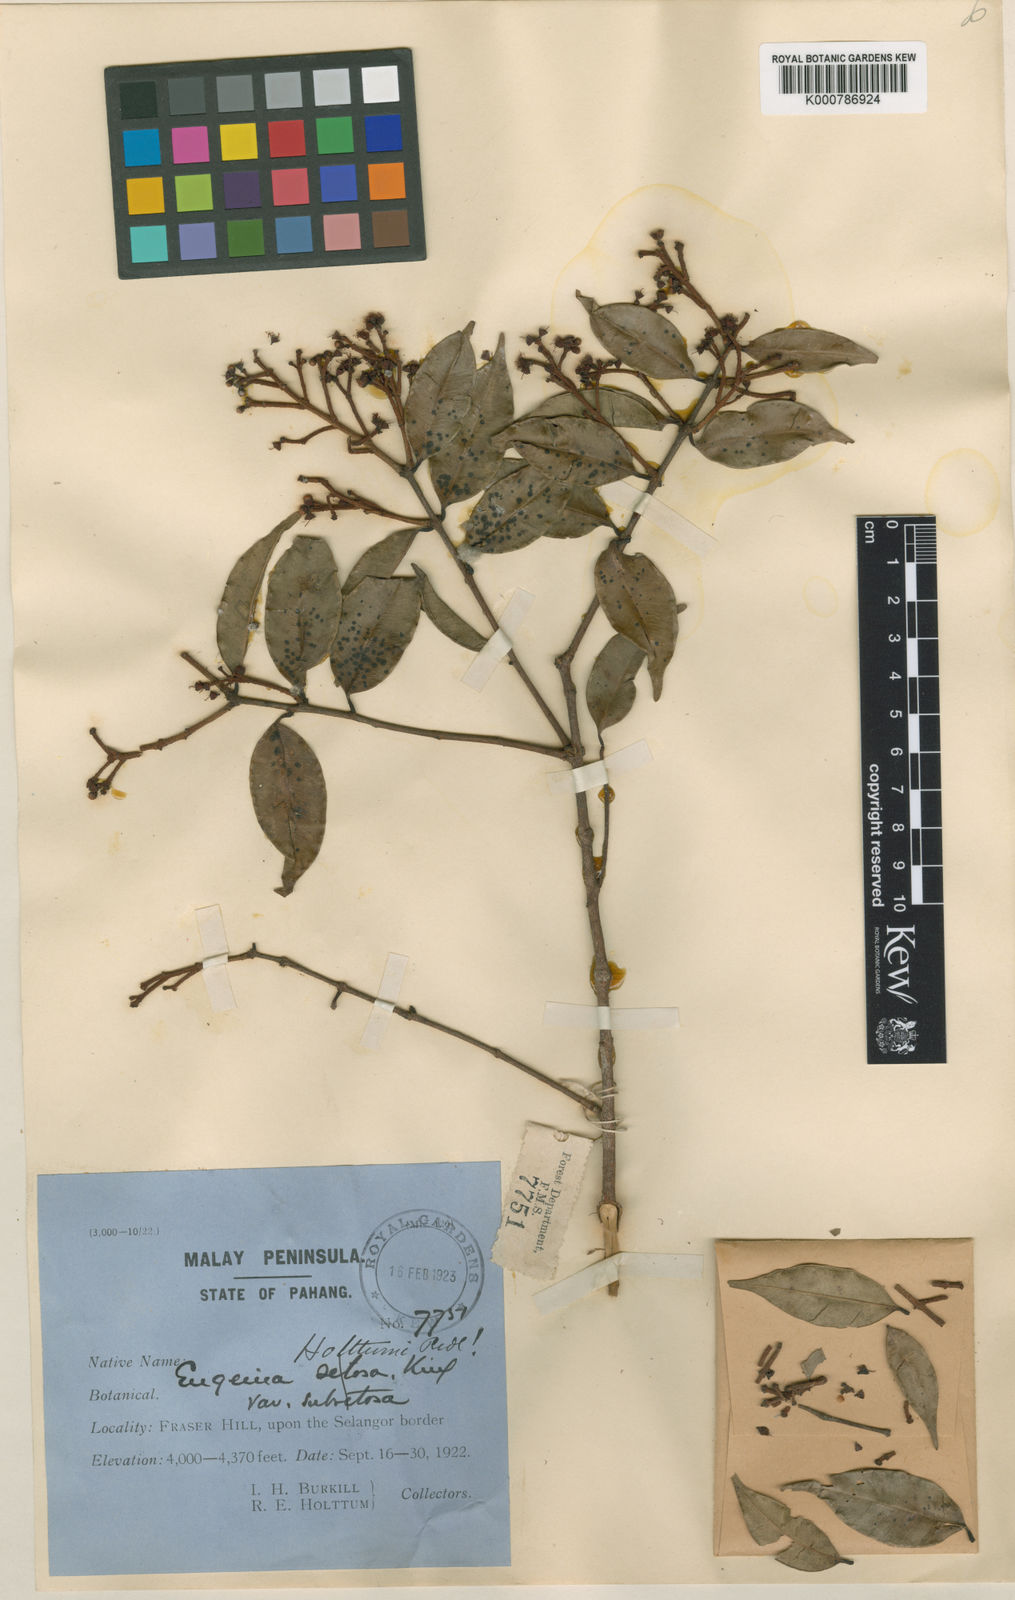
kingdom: Plantae
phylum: Tracheophyta
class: Magnoliopsida
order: Myrtales
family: Myrtaceae
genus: Syzygium
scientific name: Syzygium curtisii
